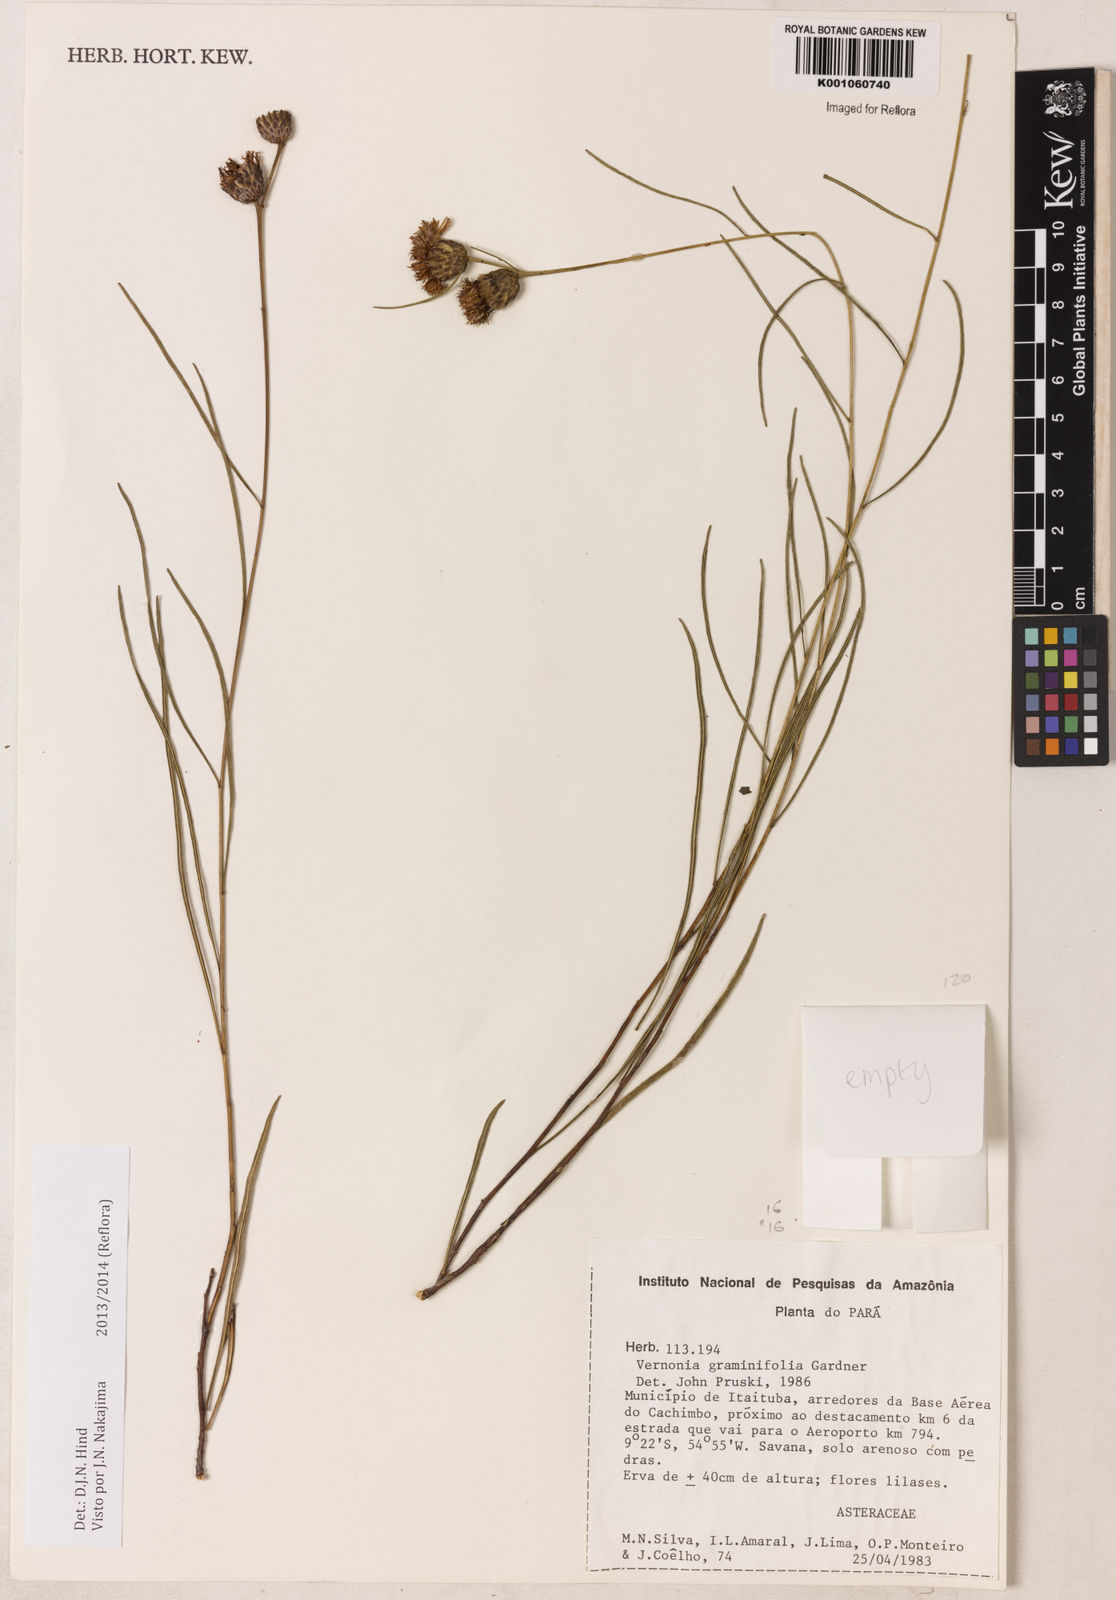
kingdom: Plantae
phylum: Tracheophyta
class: Magnoliopsida
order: Asterales
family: Asteraceae
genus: Lessingianthus
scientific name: Lessingianthus graminifolius
